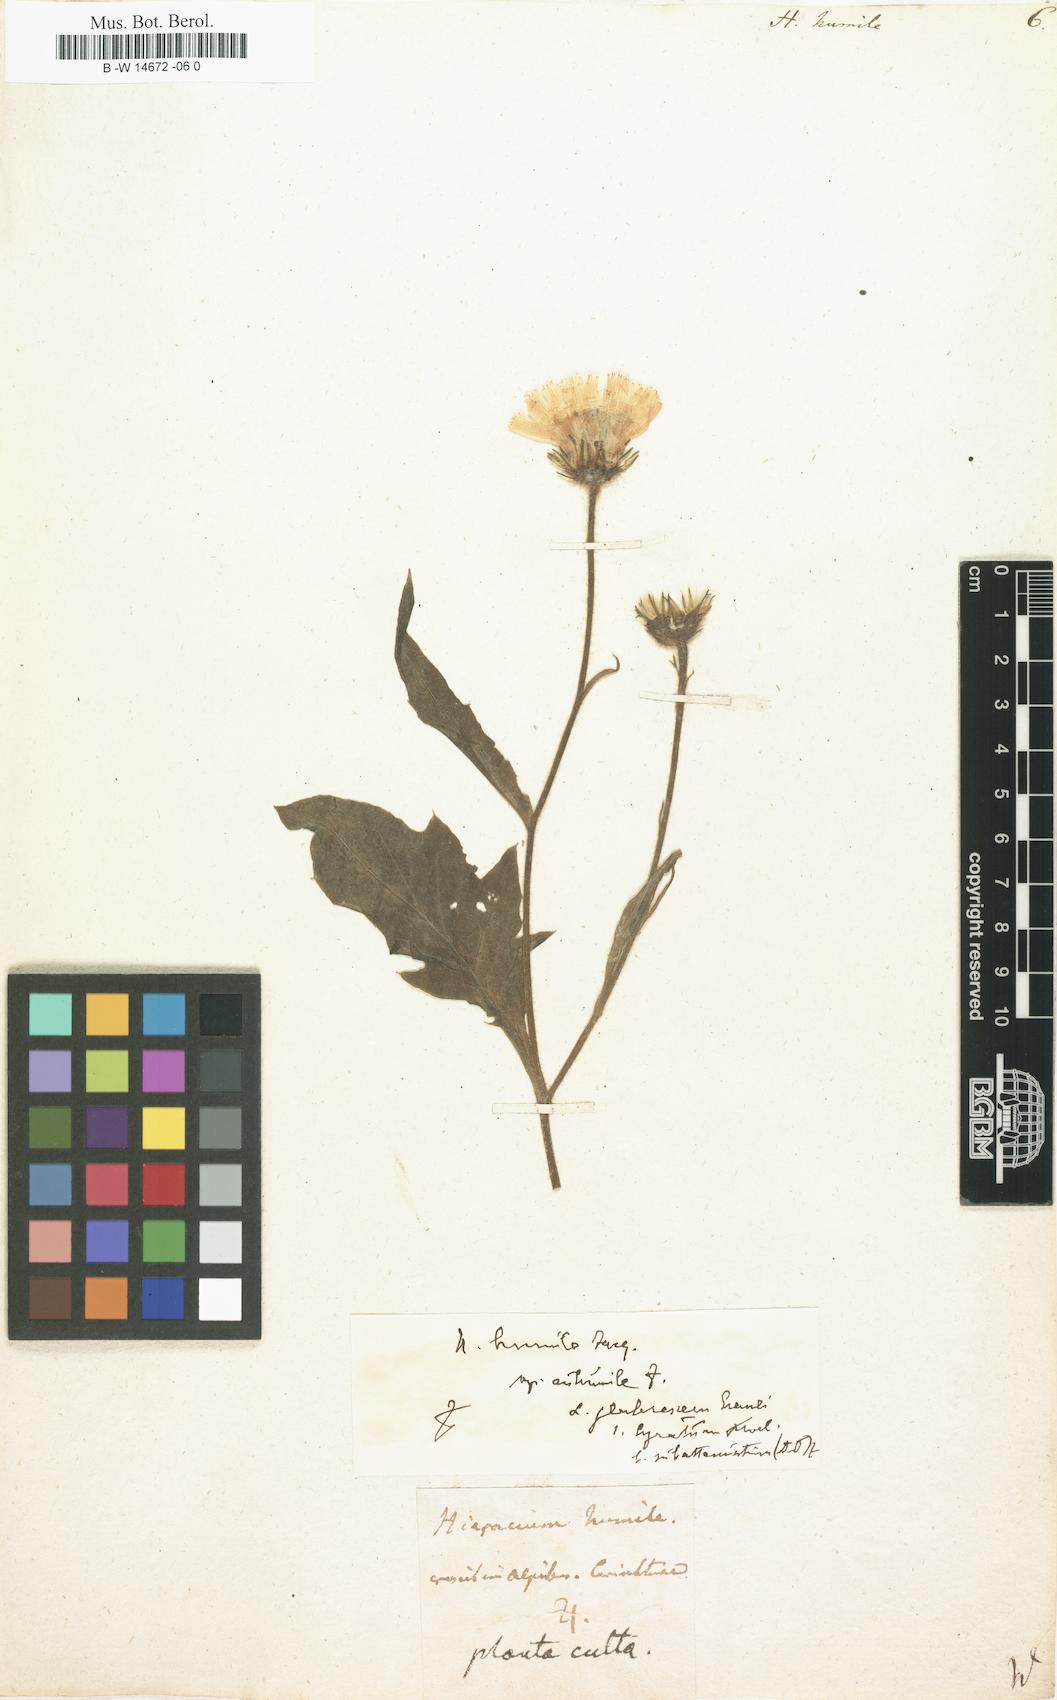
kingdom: Plantae
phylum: Tracheophyta
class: Magnoliopsida
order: Asterales
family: Asteraceae
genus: Hieracium
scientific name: Hieracium humile
